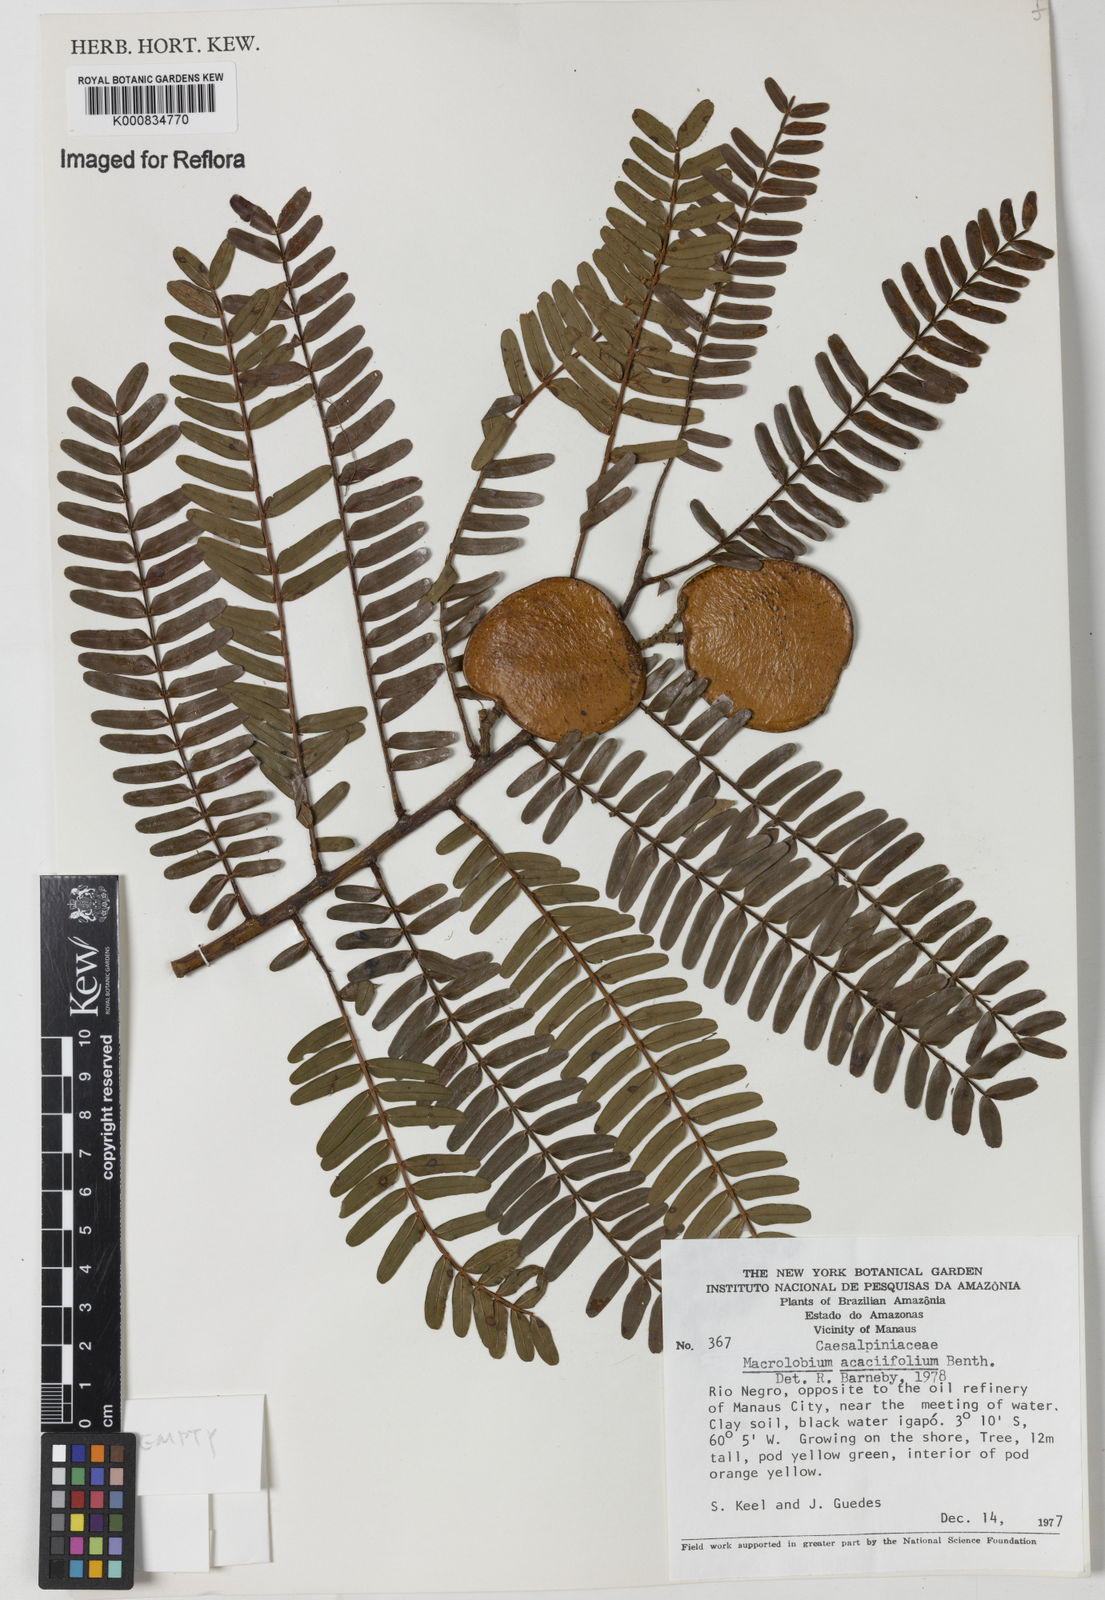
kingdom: Plantae
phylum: Tracheophyta
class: Magnoliopsida
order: Fabales
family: Fabaceae
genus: Macrolobium
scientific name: Macrolobium acaciifolium
